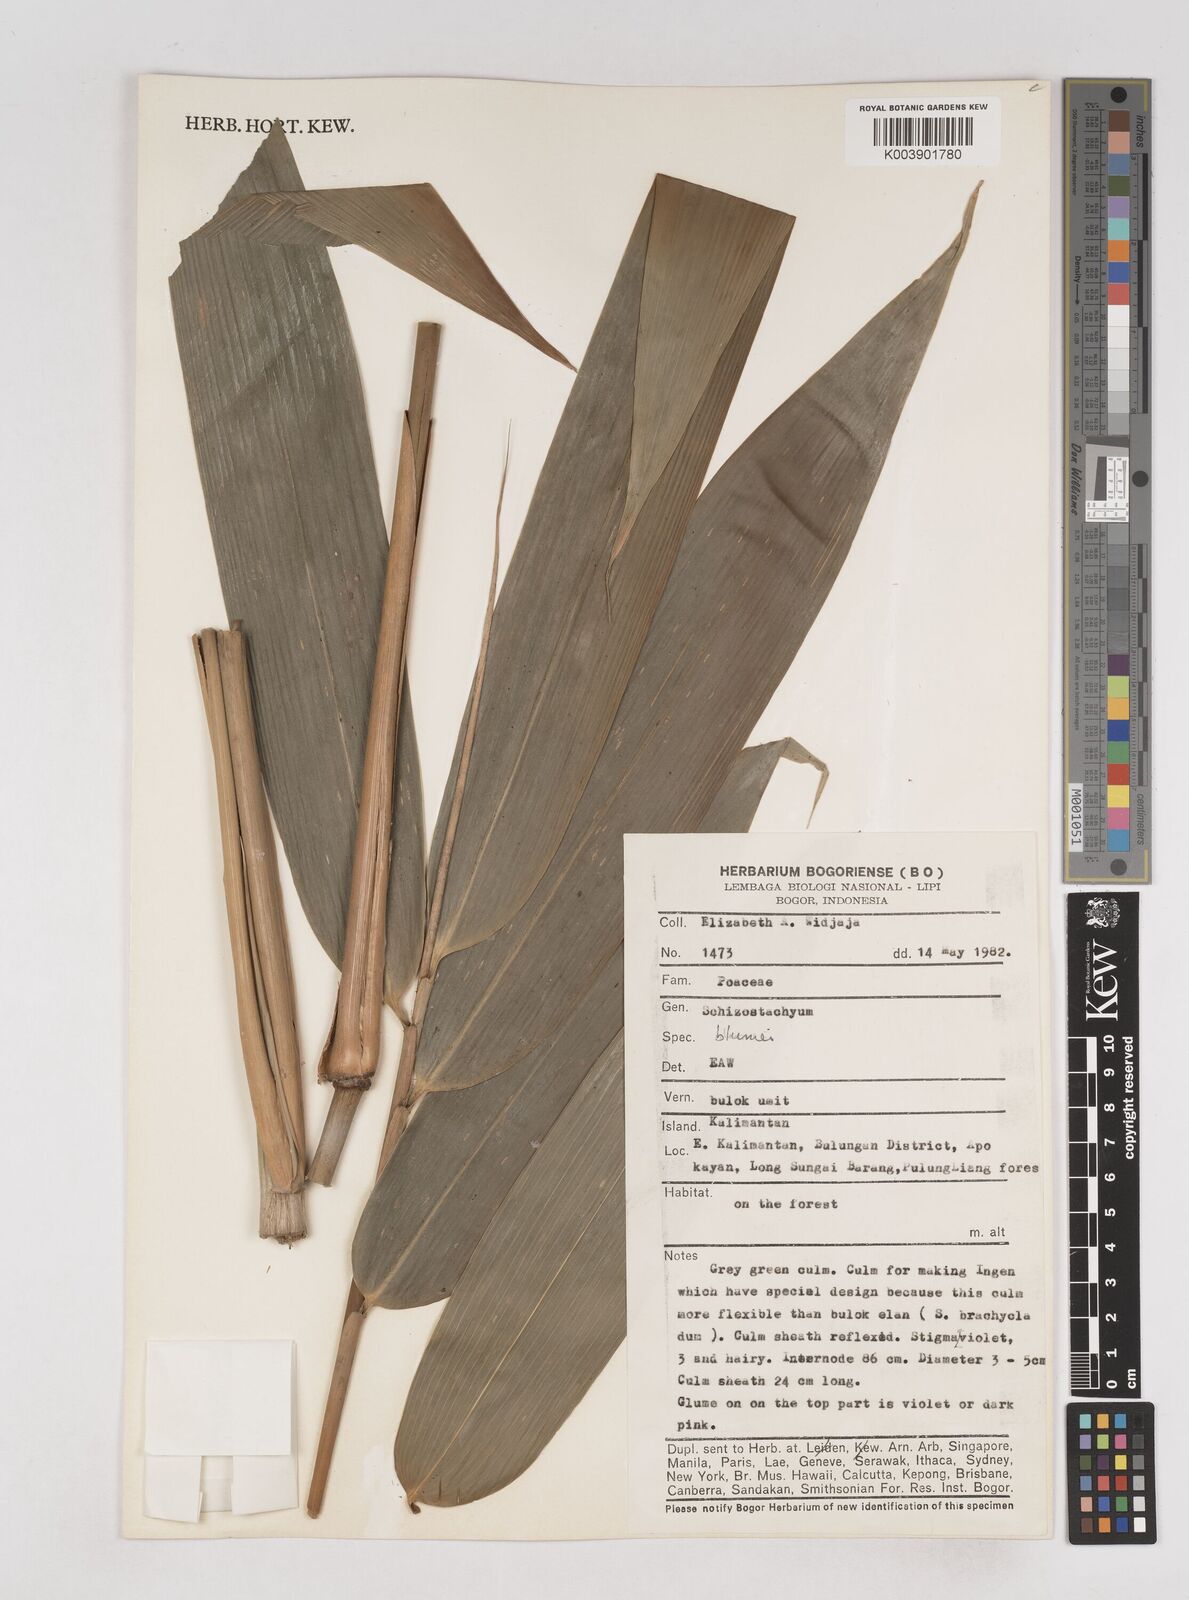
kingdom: Plantae
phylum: Tracheophyta
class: Liliopsida
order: Poales
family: Poaceae
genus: Schizostachyum
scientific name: Schizostachyum blumei
